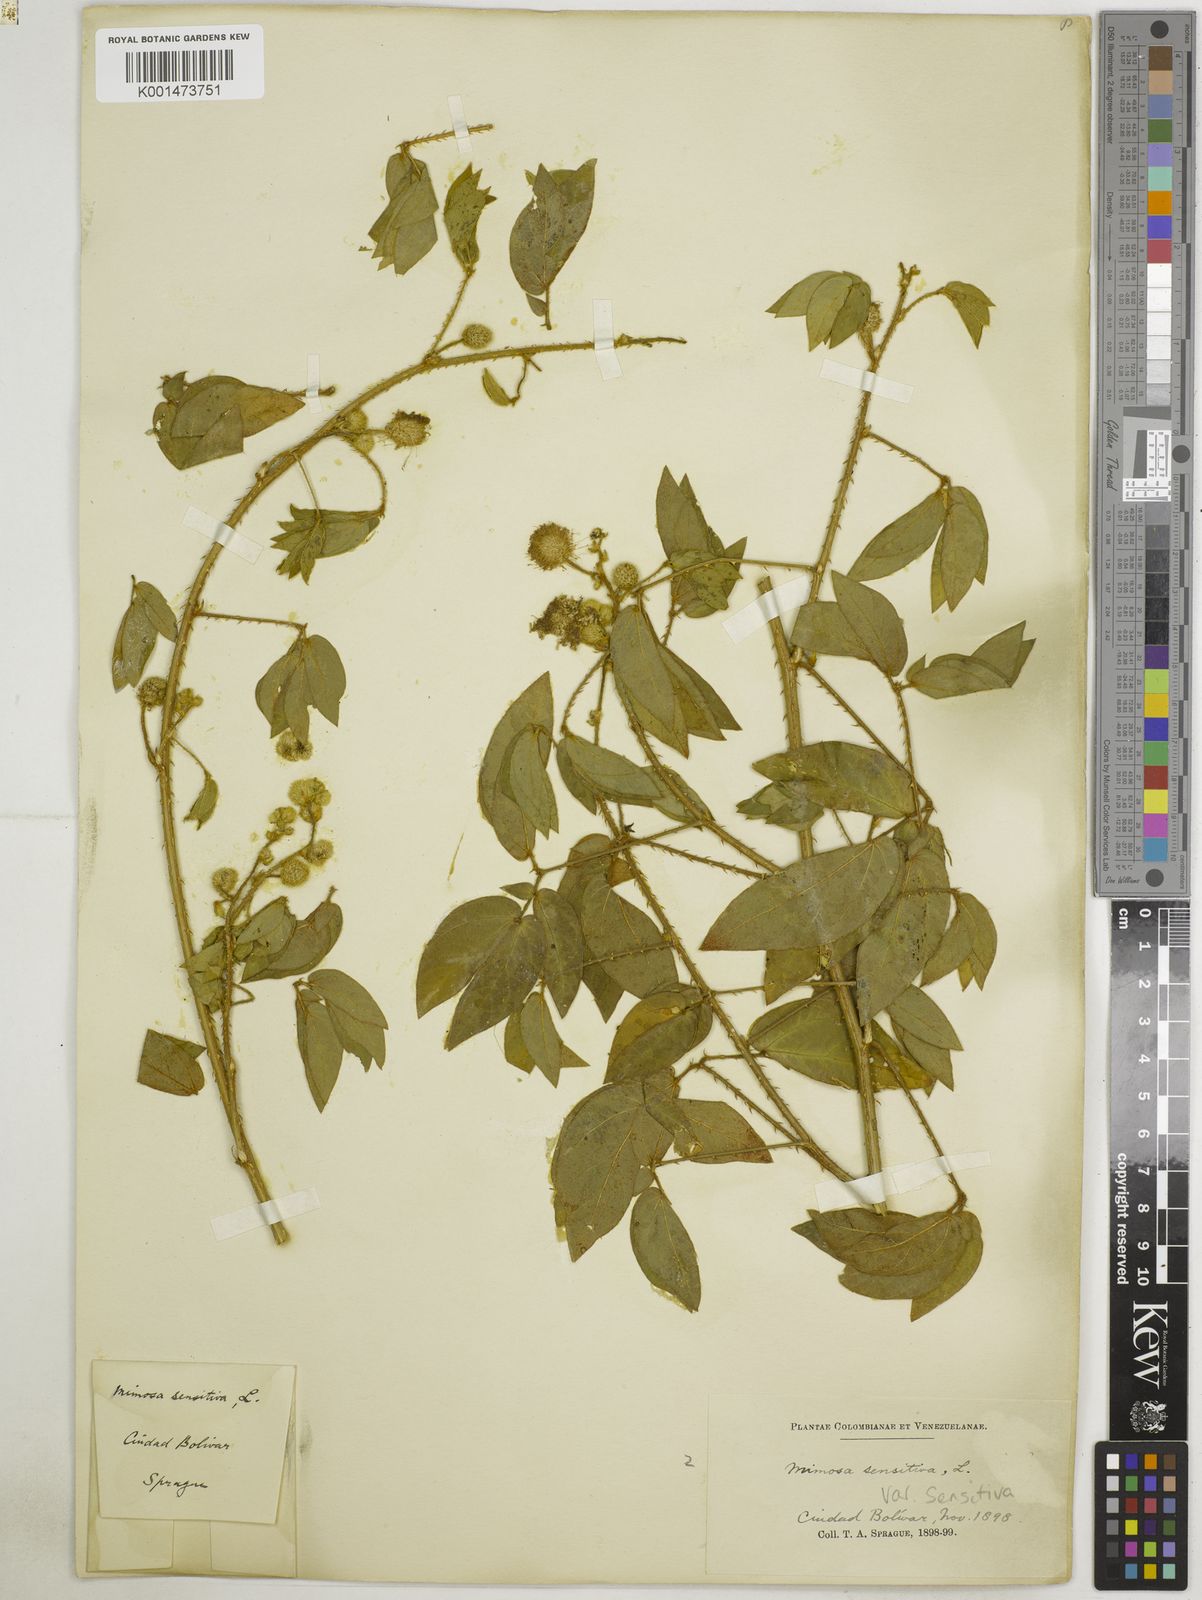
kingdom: Plantae
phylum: Tracheophyta
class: Magnoliopsida
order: Fabales
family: Fabaceae
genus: Mimosa
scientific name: Mimosa sensitiva
